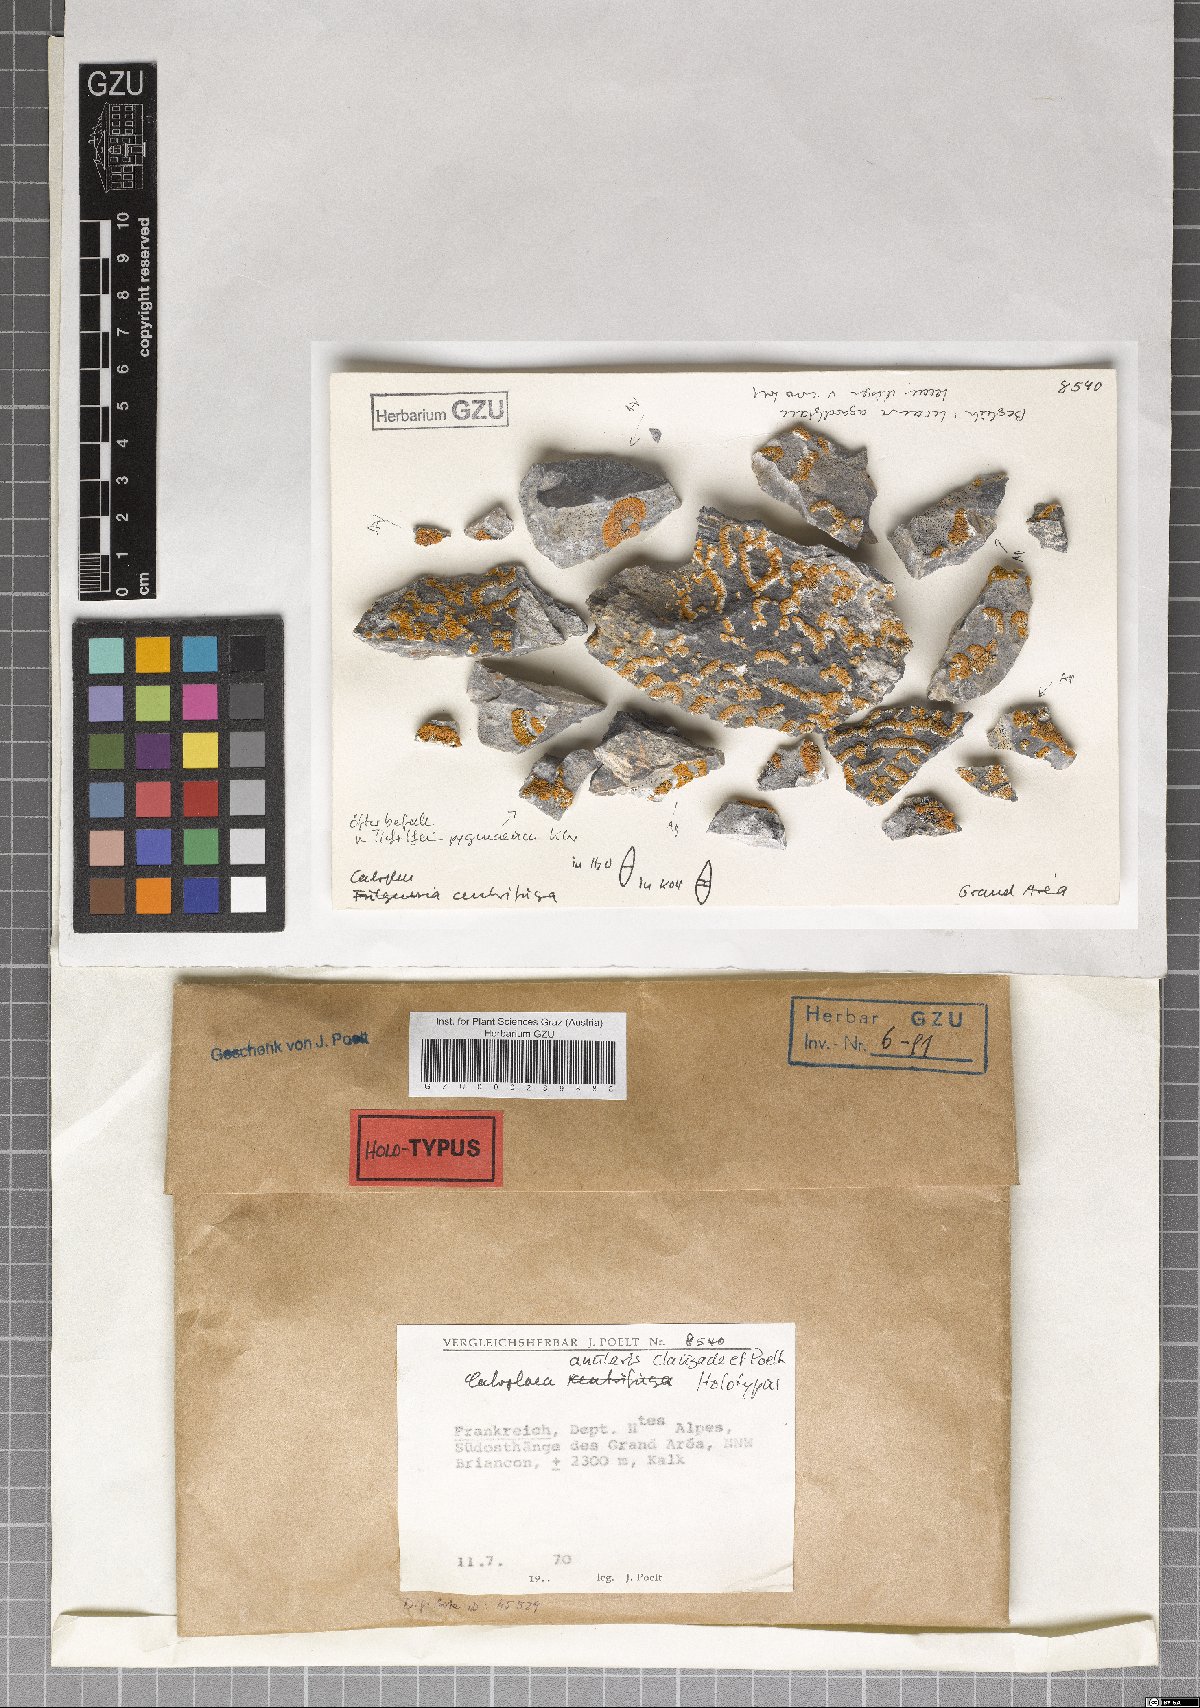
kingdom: Fungi
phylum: Ascomycota
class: Lecanoromycetes
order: Teloschistales
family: Teloschistaceae
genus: Caloplaca
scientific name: Caloplaca anularis
